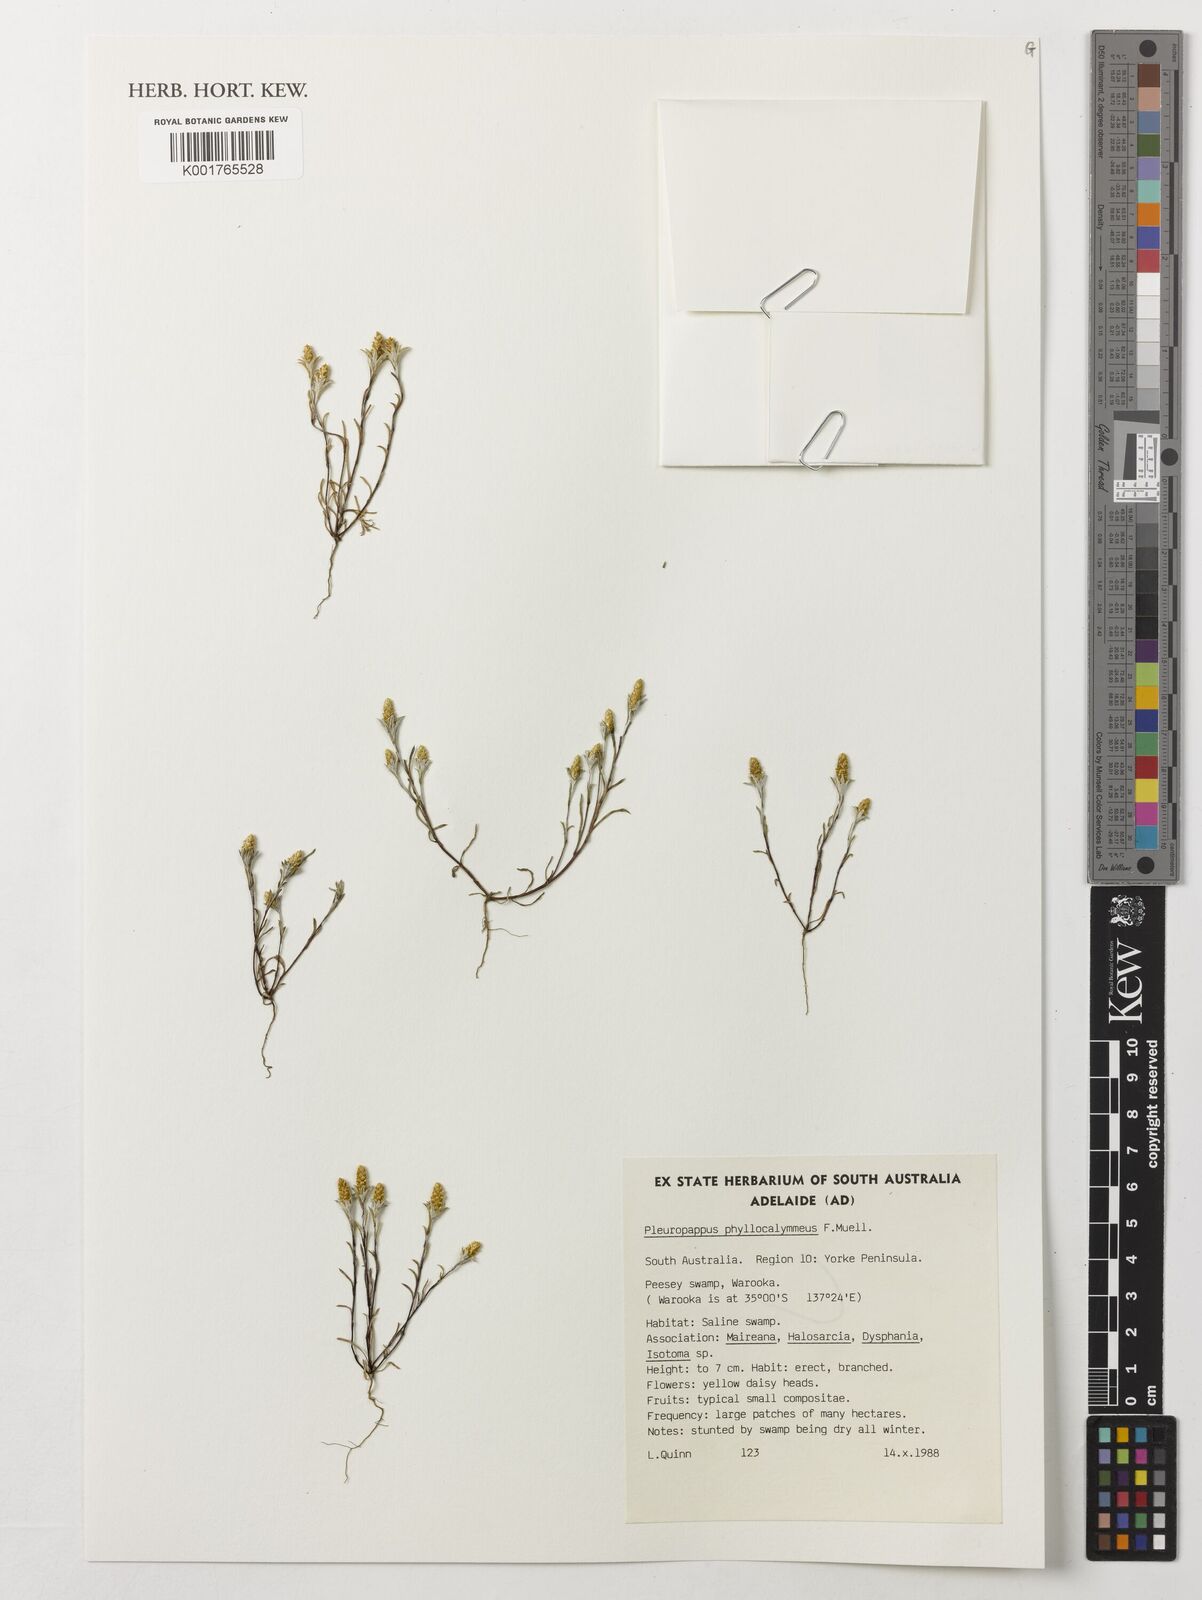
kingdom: Plantae
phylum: Tracheophyta
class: Magnoliopsida
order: Asterales
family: Asteraceae
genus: Angianthus
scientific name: Angianthus phyllocalymmeus
